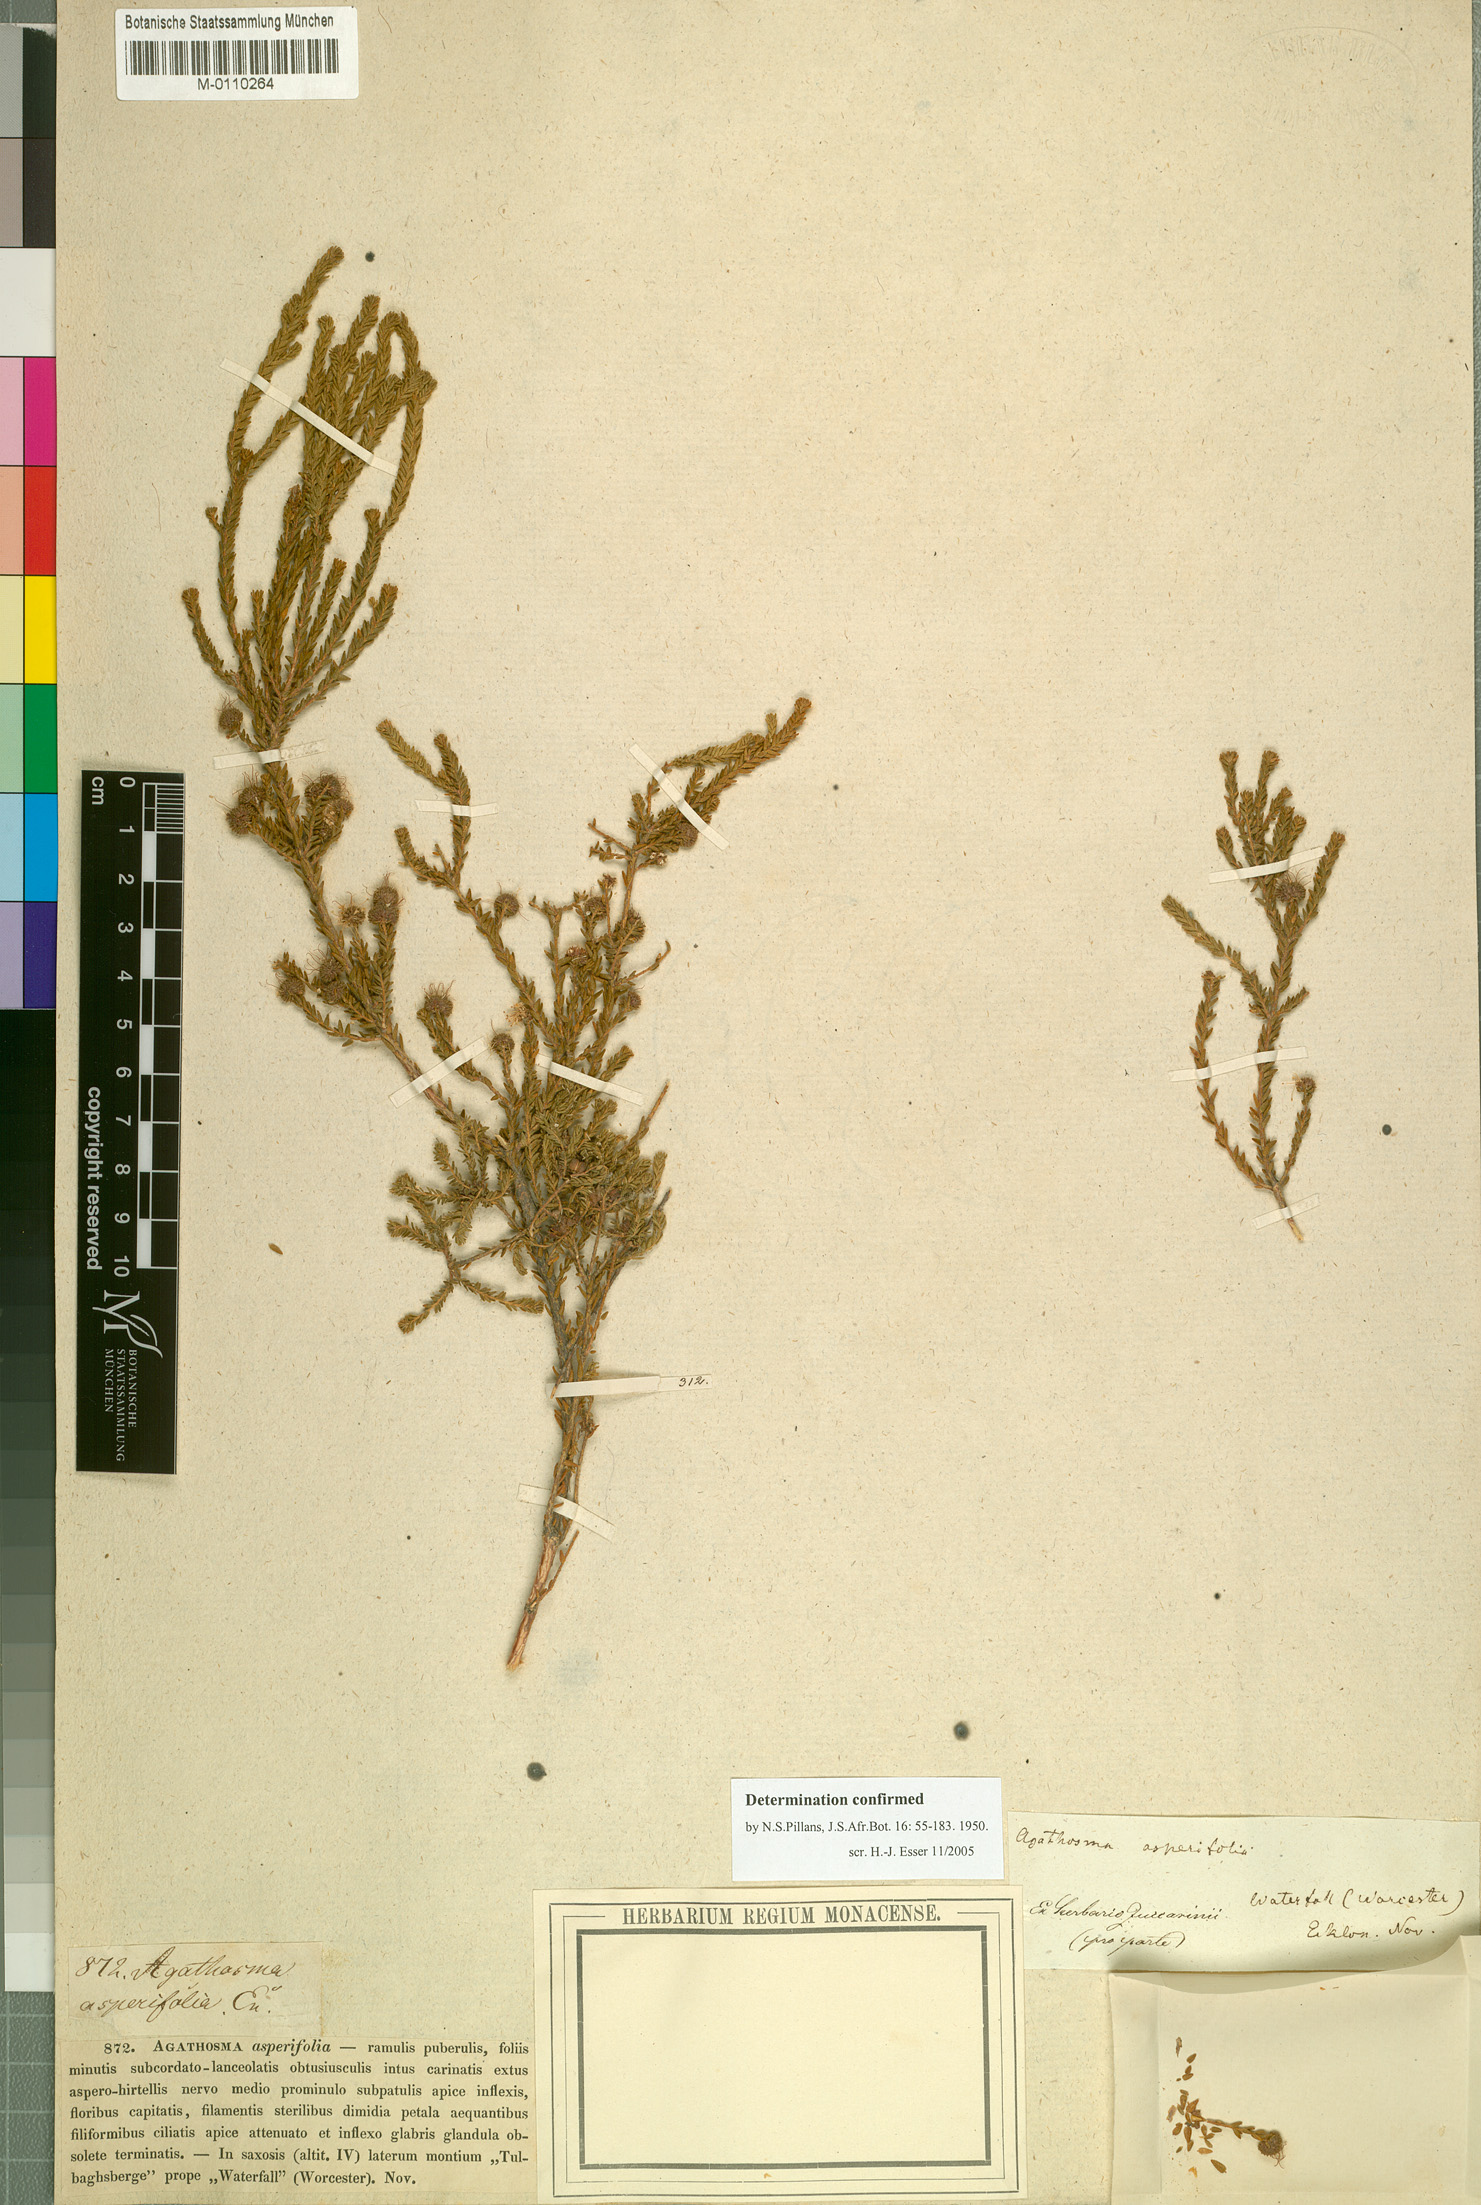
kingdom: Plantae
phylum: Tracheophyta
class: Magnoliopsida
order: Sapindales
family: Rutaceae
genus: Agathosma
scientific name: Agathosma asperifolia
